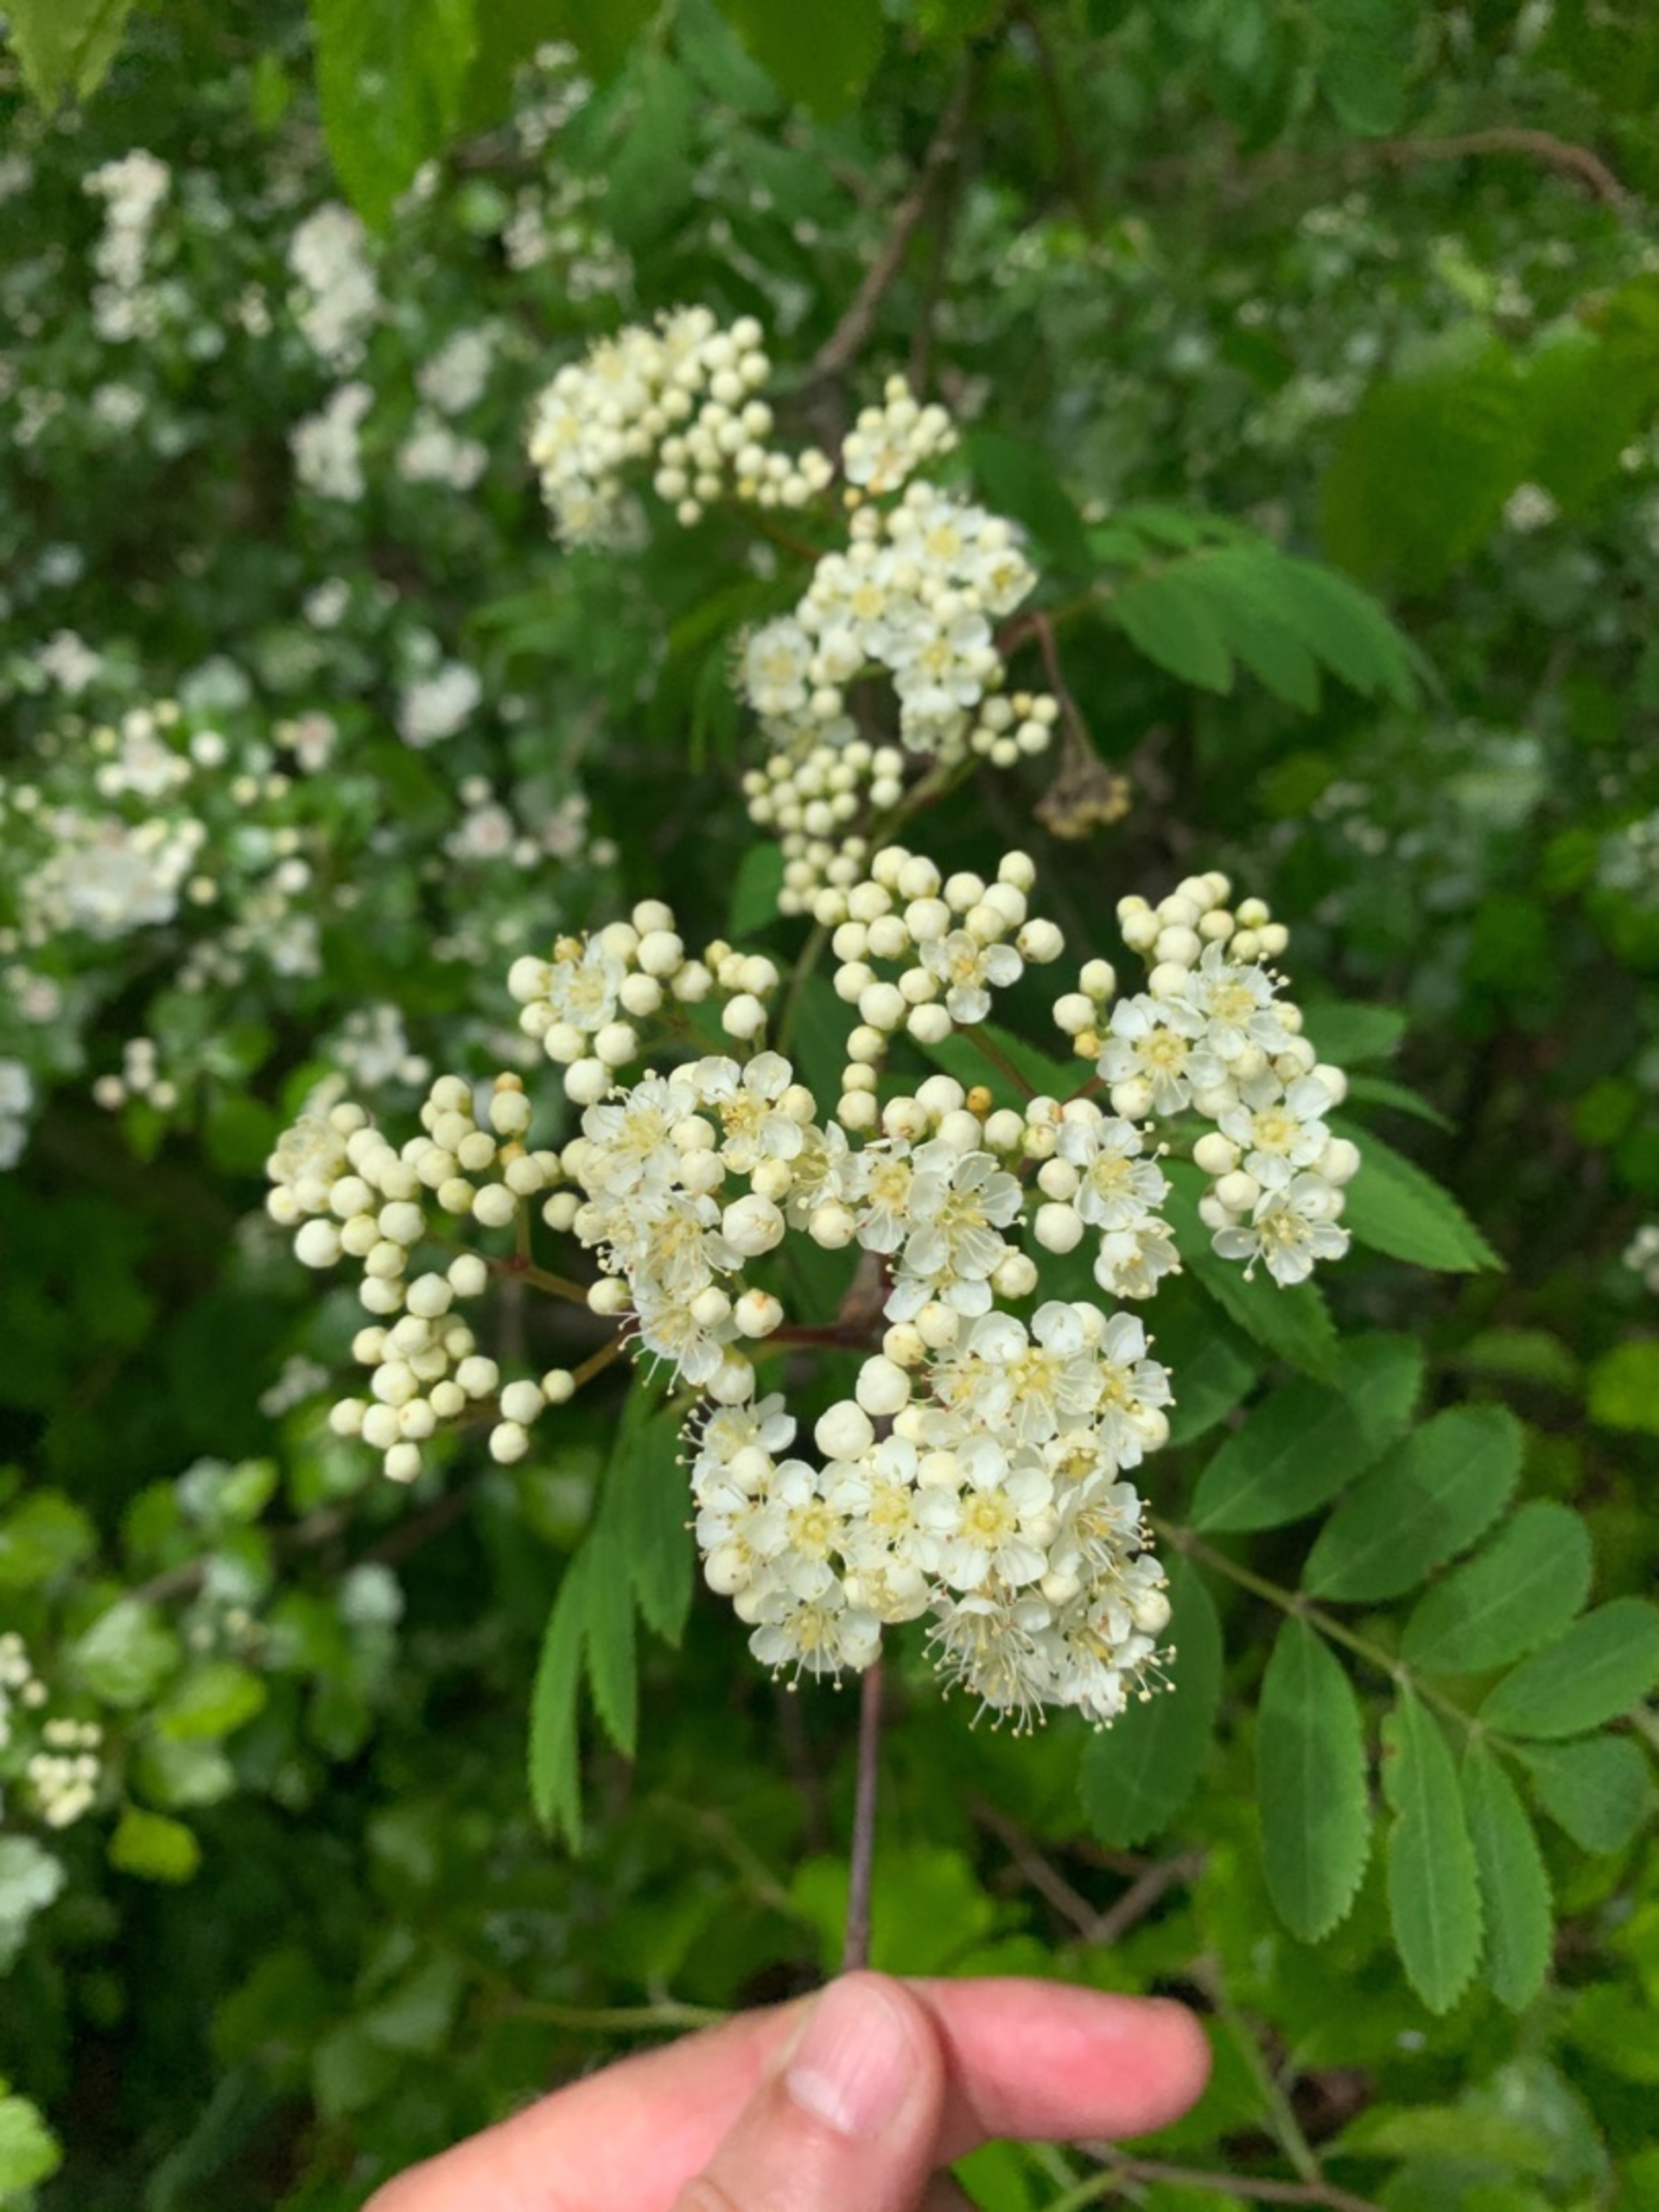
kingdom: Plantae
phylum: Tracheophyta
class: Magnoliopsida
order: Rosales
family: Rosaceae
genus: Sorbus
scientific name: Sorbus aucuparia
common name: Almindelig røn
